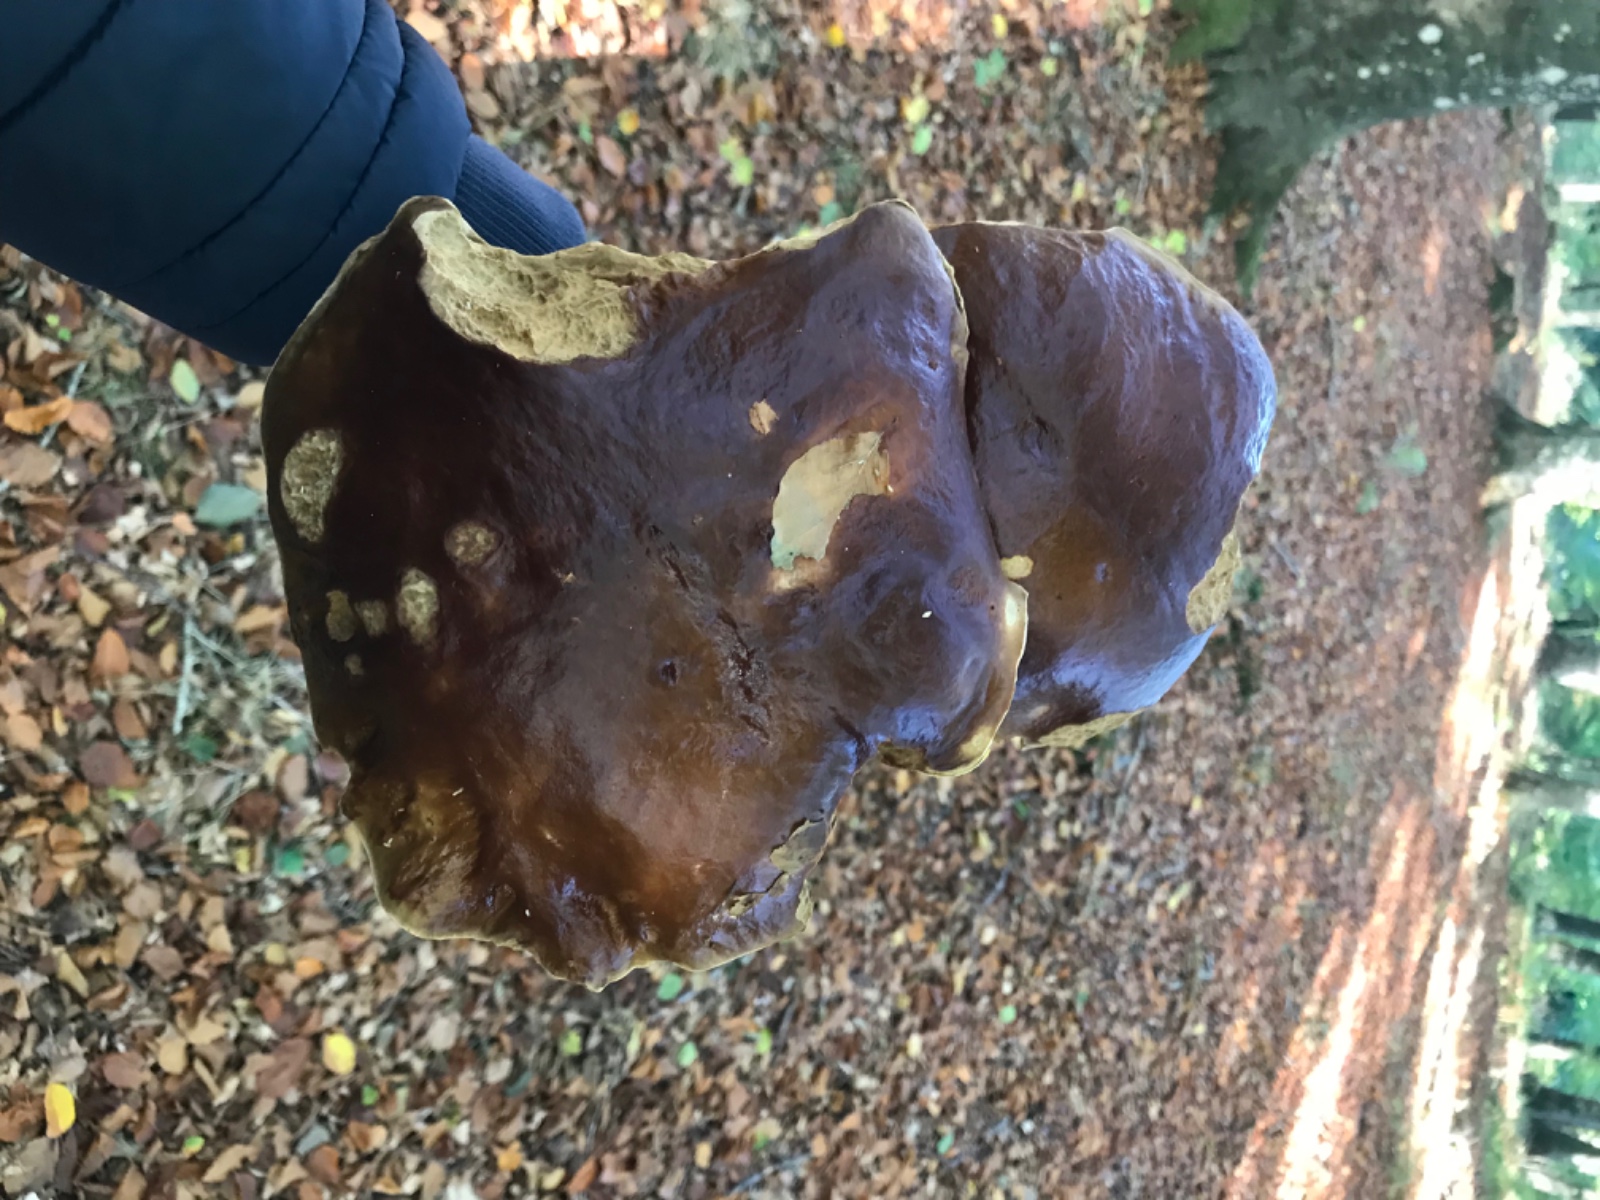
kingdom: Fungi
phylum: Basidiomycota
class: Agaricomycetes
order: Boletales
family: Boletaceae
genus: Boletus
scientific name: Boletus edulis
